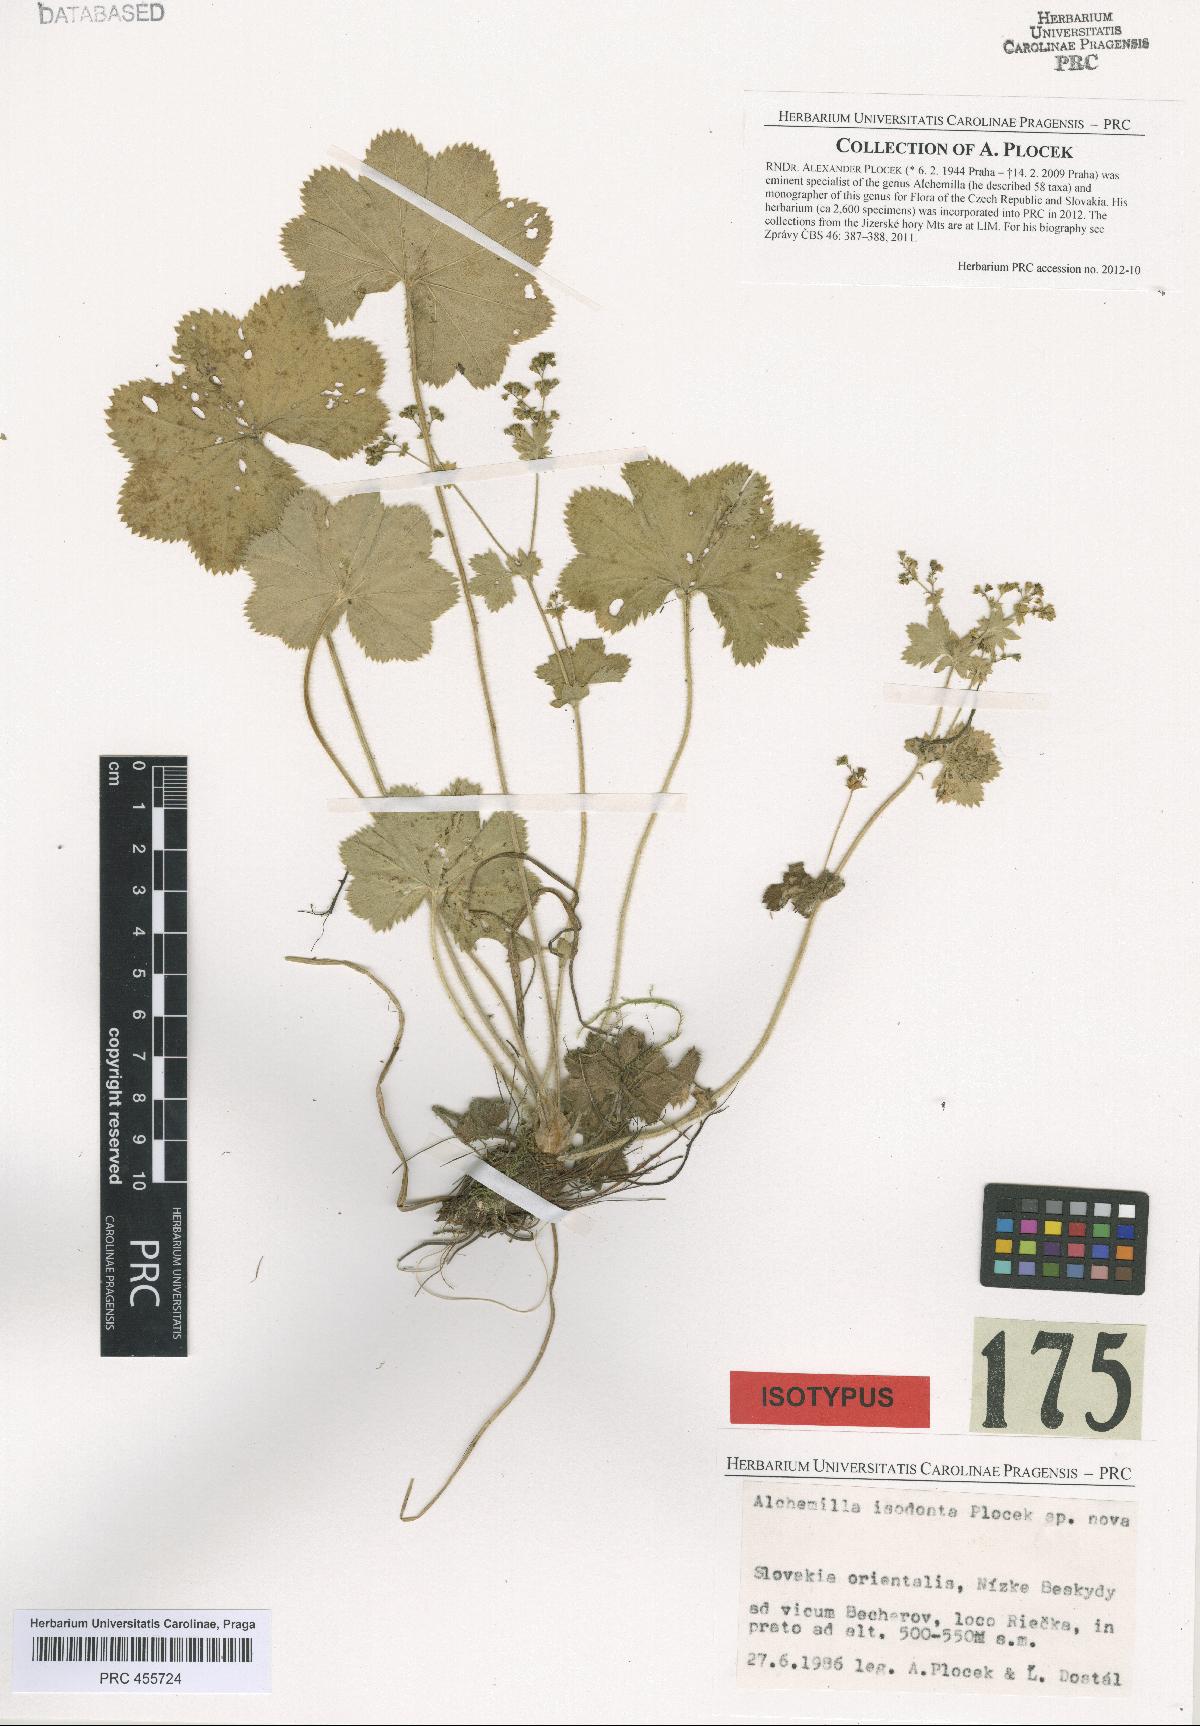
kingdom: Plantae
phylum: Tracheophyta
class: Magnoliopsida
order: Rosales
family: Rosaceae
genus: Alchemilla
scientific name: Alchemilla isodonta
